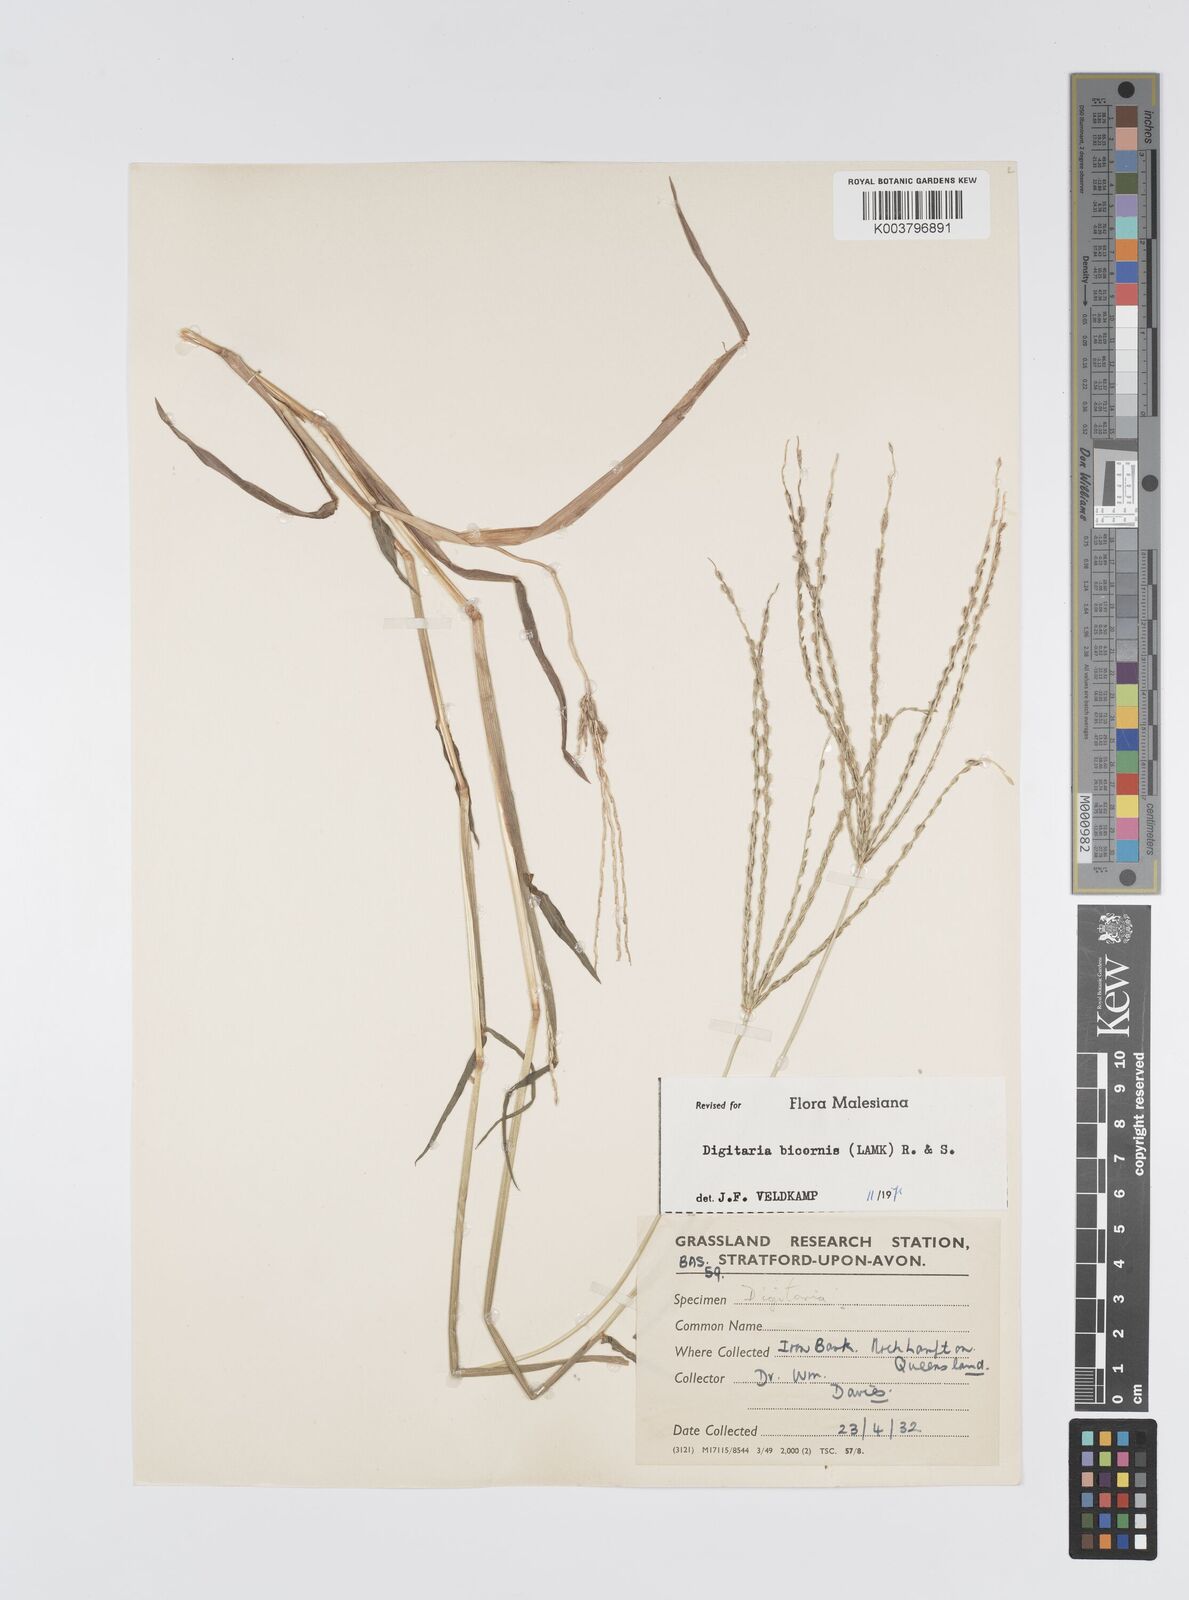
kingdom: Plantae
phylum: Tracheophyta
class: Liliopsida
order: Poales
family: Poaceae
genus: Digitaria
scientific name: Digitaria bicornis
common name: Asian crabgrass
